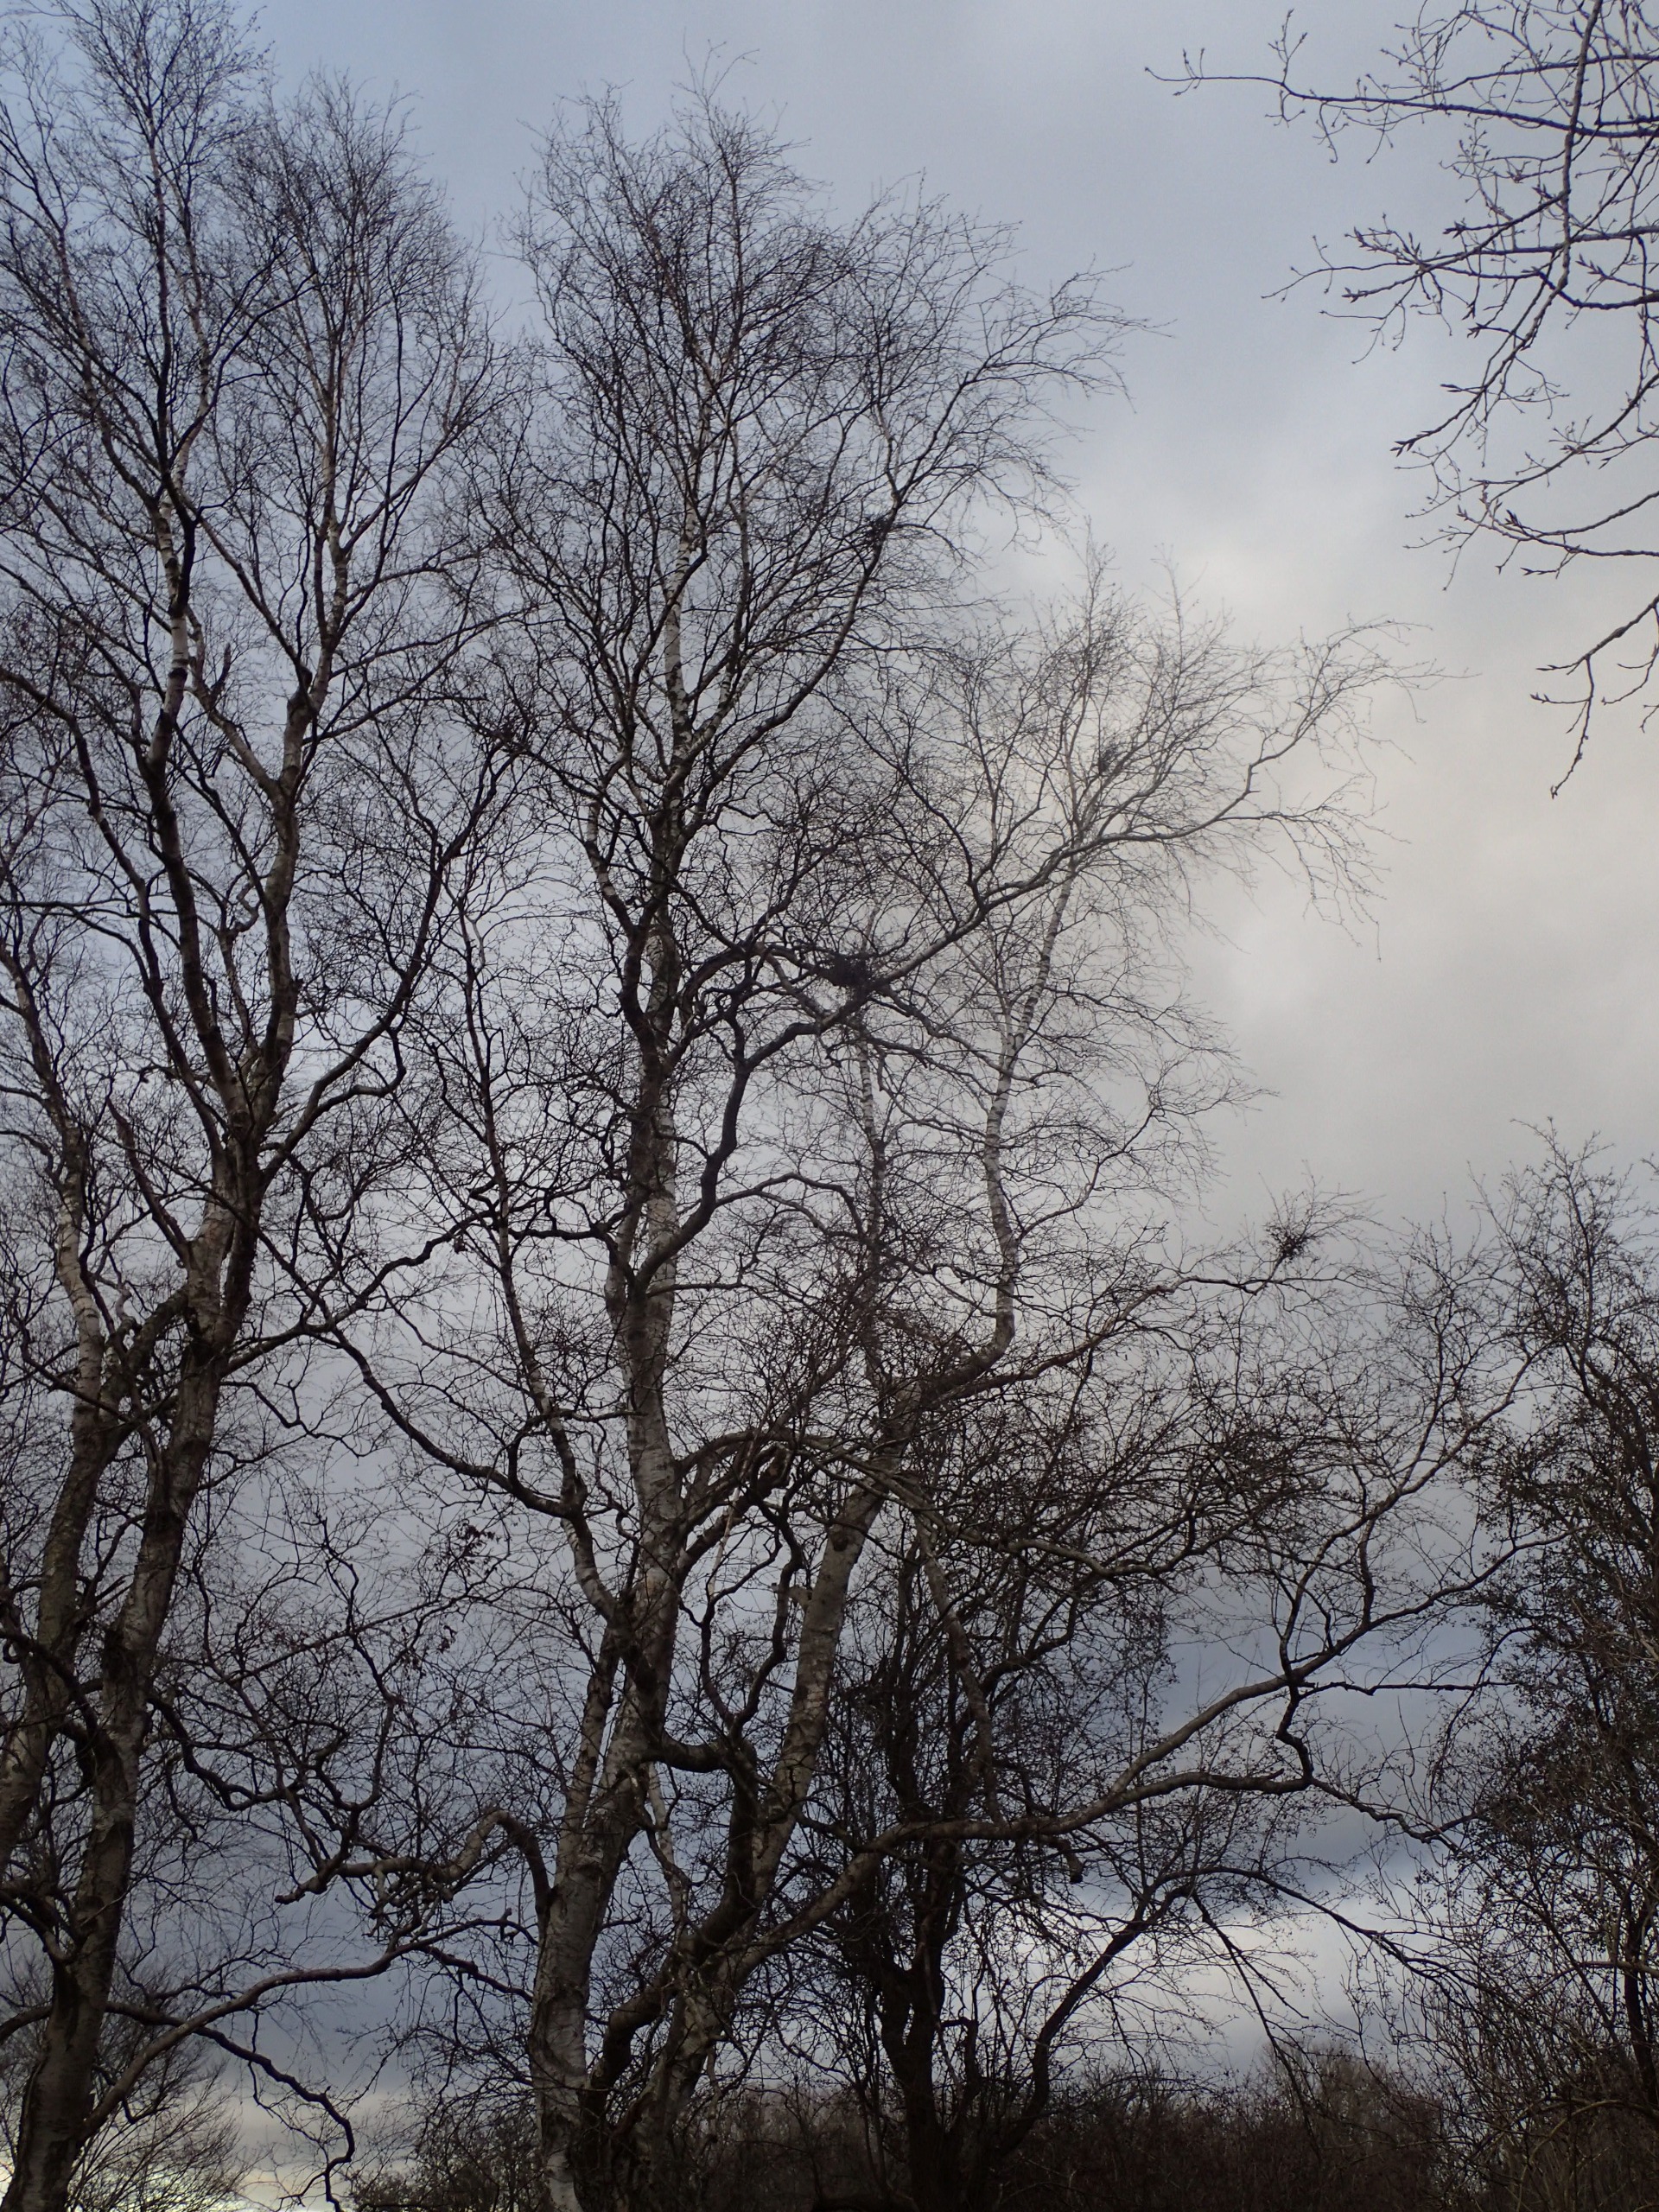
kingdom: Plantae
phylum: Tracheophyta
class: Magnoliopsida
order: Fagales
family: Betulaceae
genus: Betula
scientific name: Betula pubescens
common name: Dun-birk
